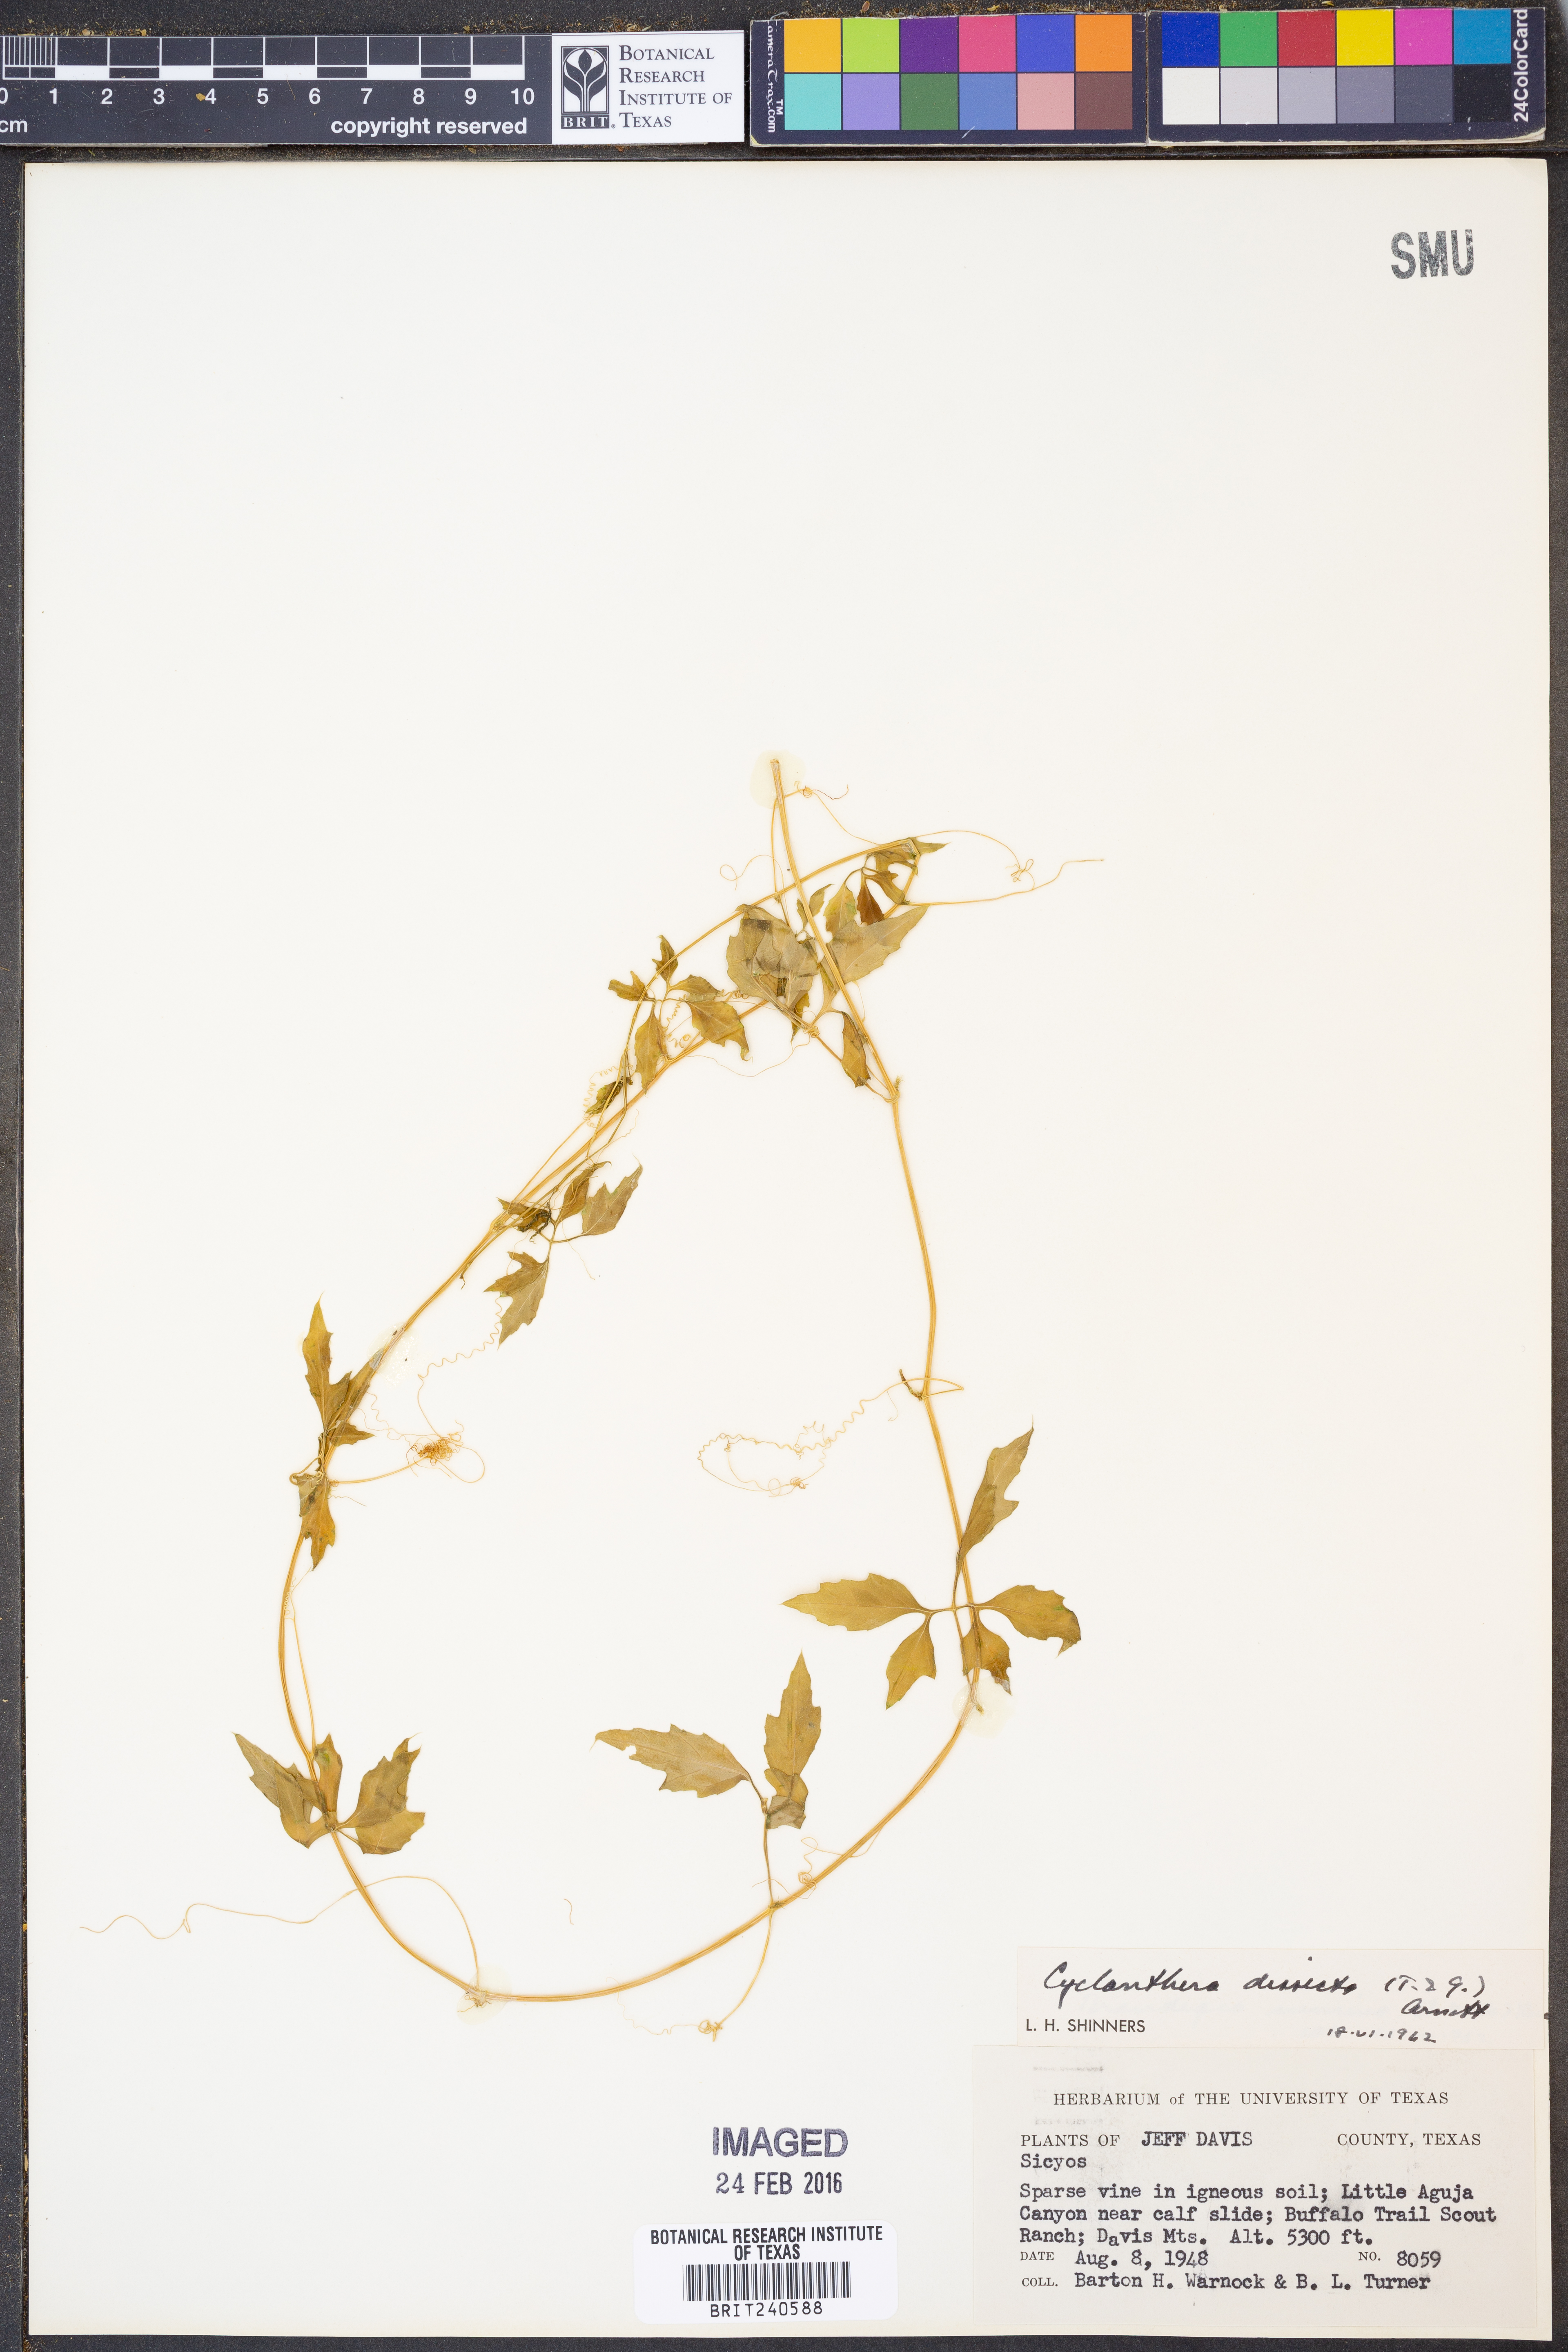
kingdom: Plantae
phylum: Tracheophyta
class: Magnoliopsida
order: Cucurbitales
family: Cucurbitaceae
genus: Cyclanthera
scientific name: Cyclanthera dissecta
